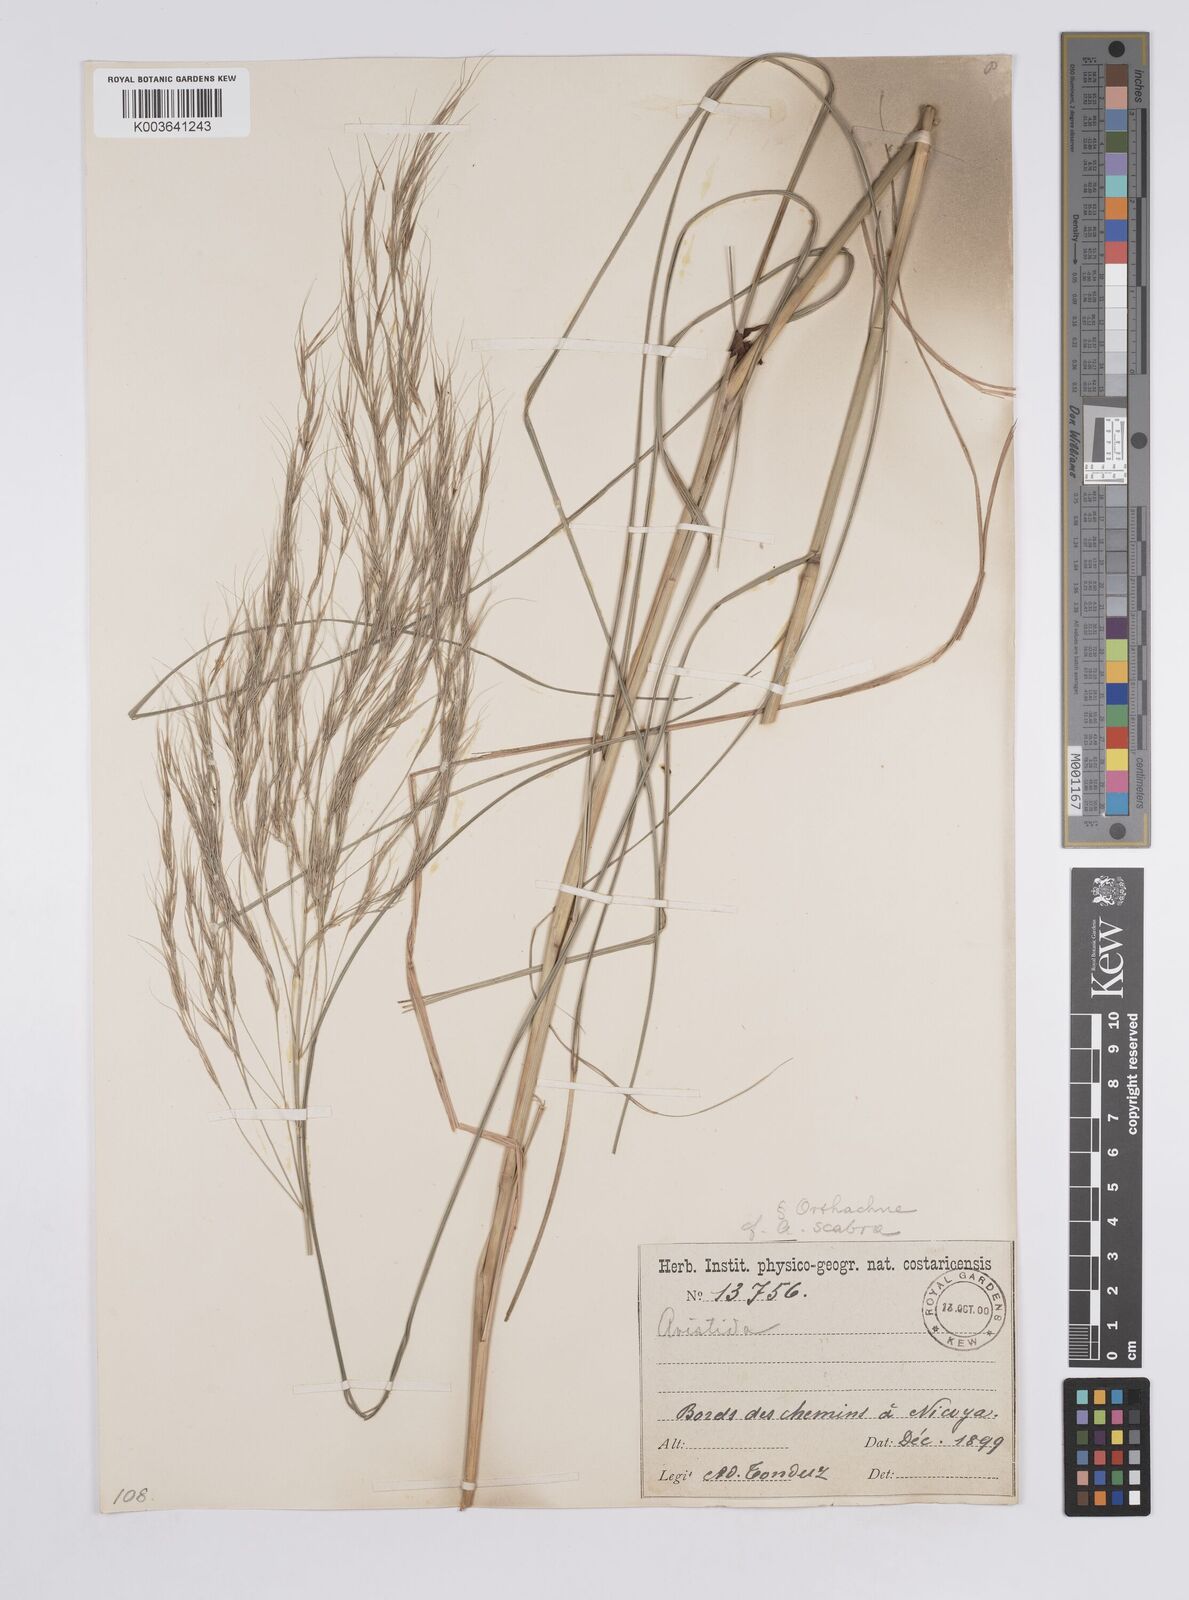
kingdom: Plantae
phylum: Tracheophyta
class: Liliopsida
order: Poales
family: Poaceae
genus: Aristida
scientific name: Aristida
